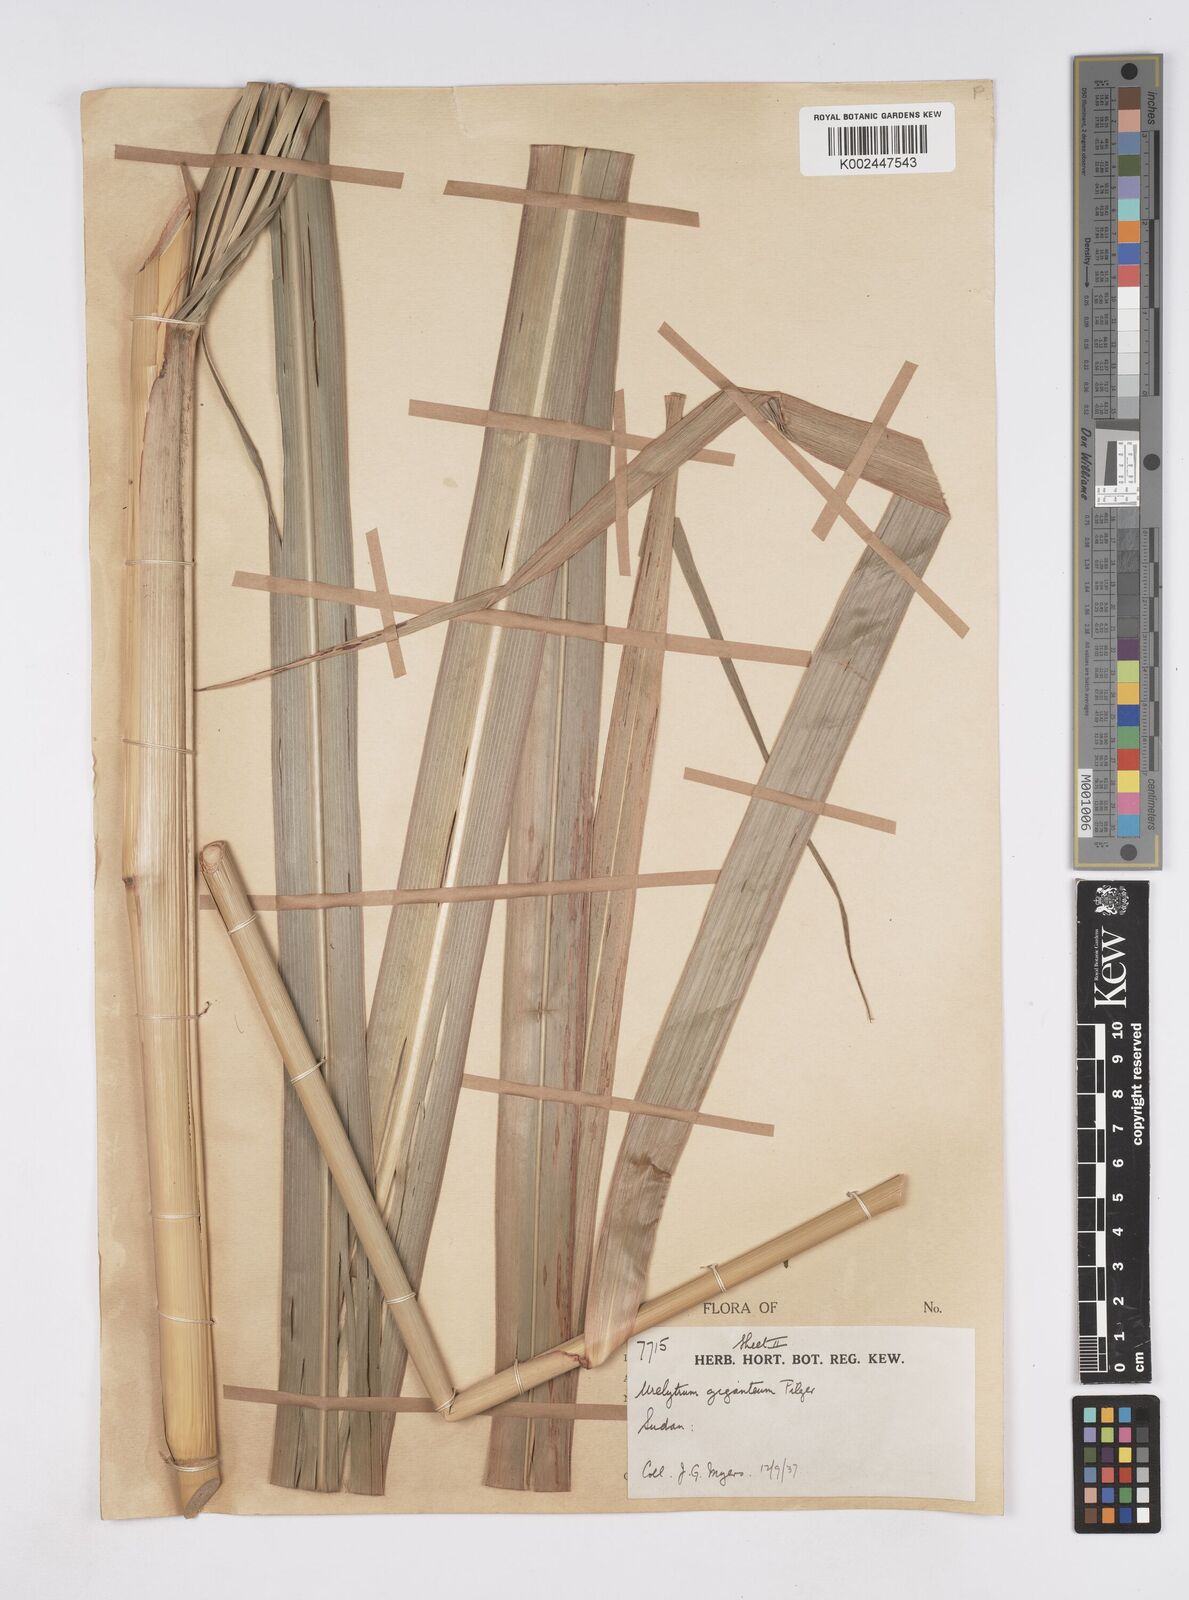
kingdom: Plantae
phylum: Tracheophyta
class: Liliopsida
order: Poales
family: Poaceae
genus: Urelytrum
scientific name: Urelytrum giganteum
